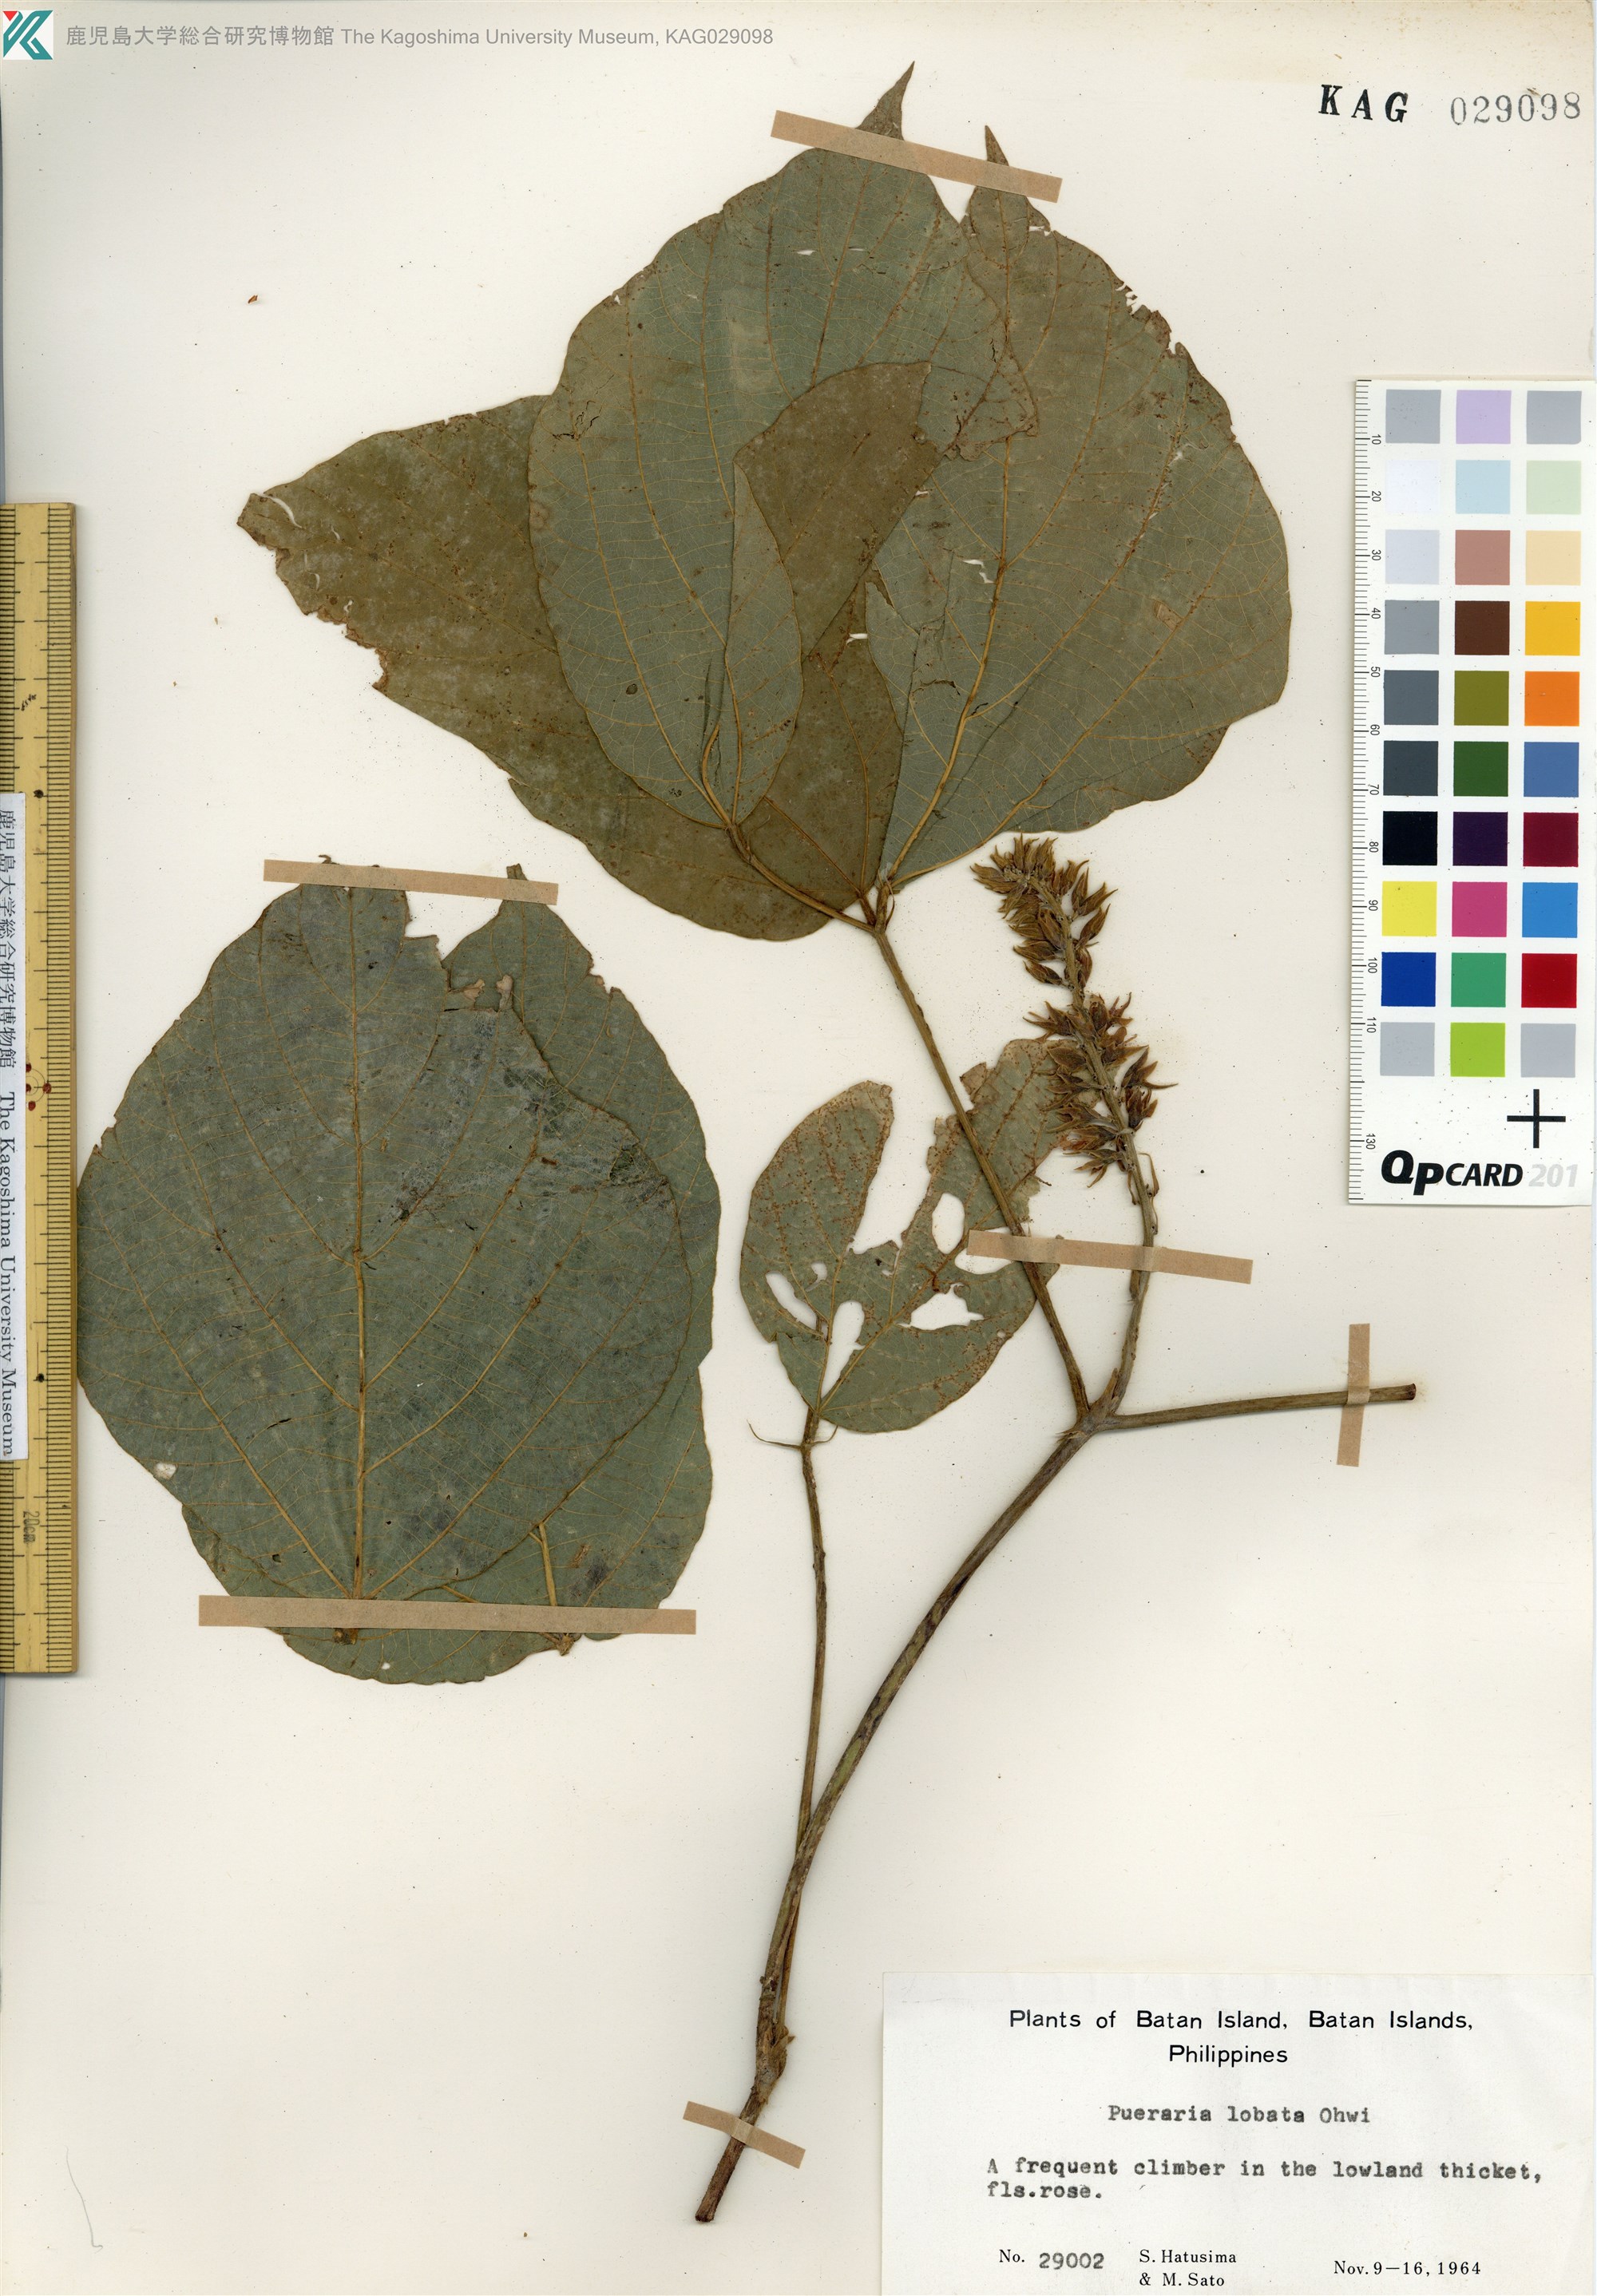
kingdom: Plantae
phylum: Tracheophyta
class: Magnoliopsida
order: Fabales
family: Fabaceae
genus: Pueraria
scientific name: Pueraria montana
